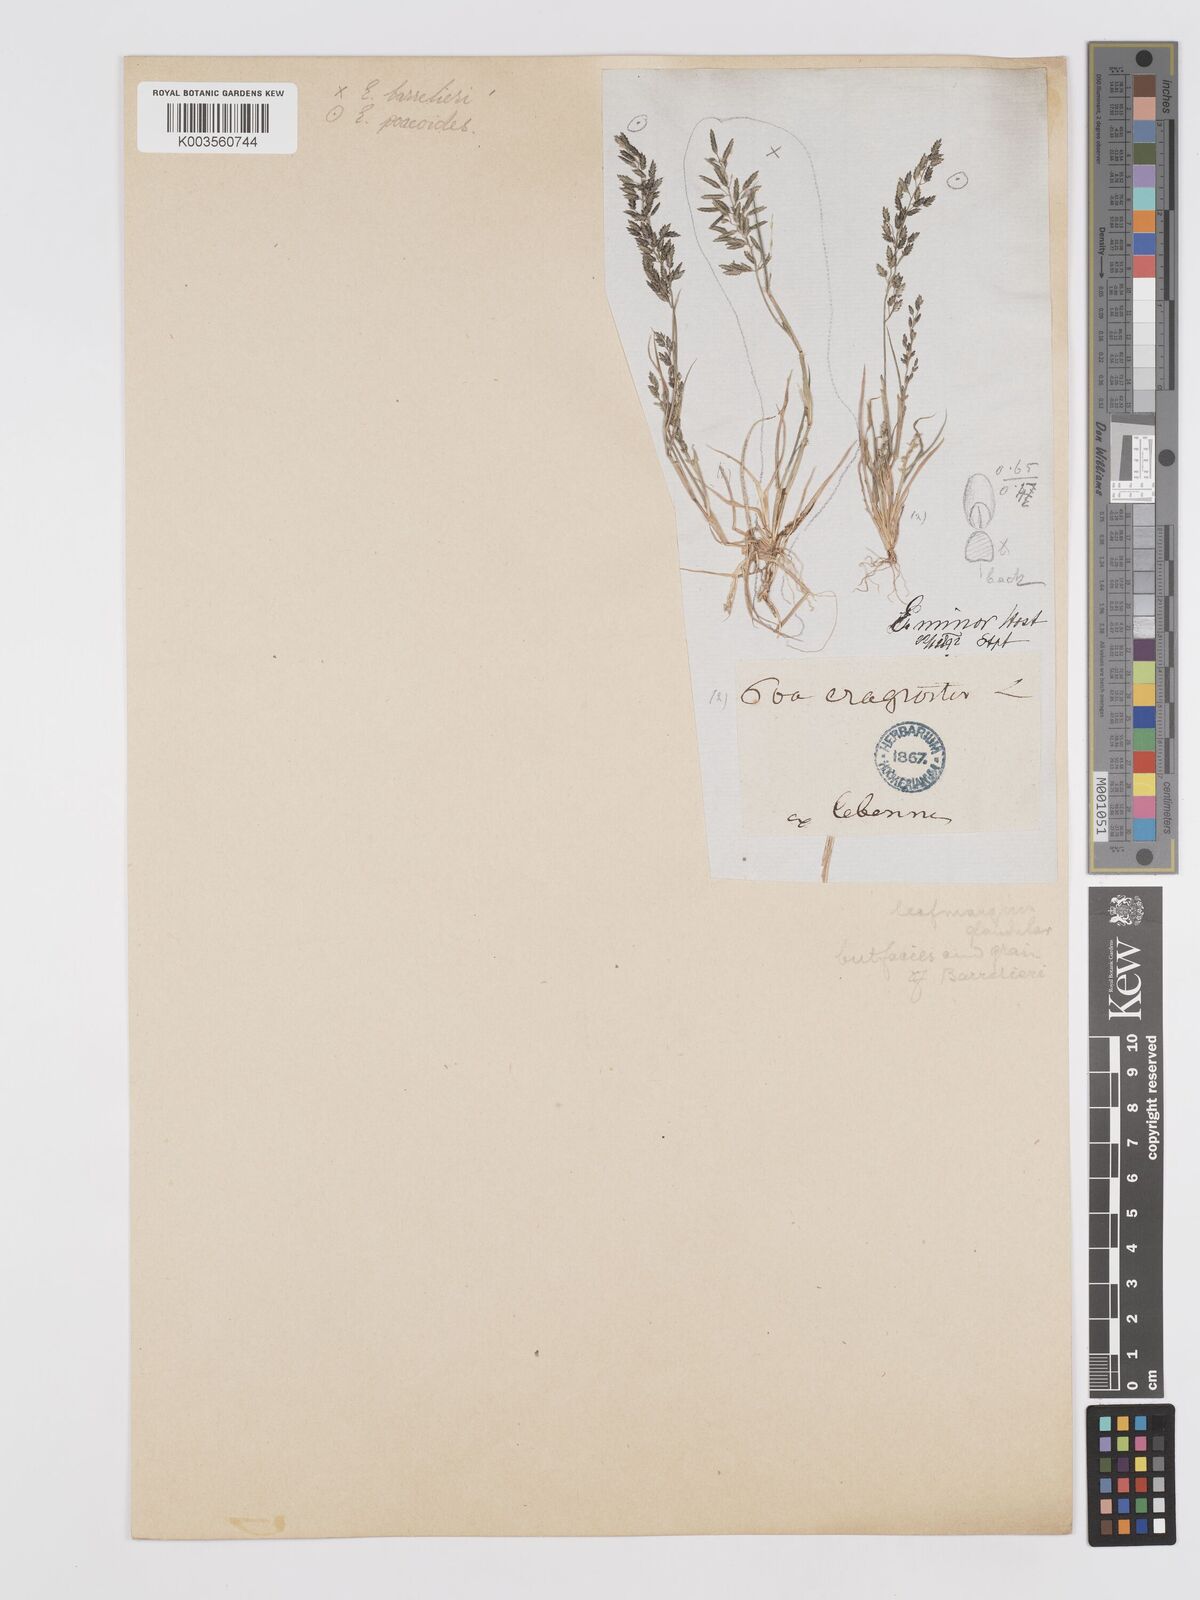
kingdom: Plantae
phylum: Tracheophyta
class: Liliopsida
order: Poales
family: Poaceae
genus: Eragrostis
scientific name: Eragrostis minor
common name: Small love-grass
